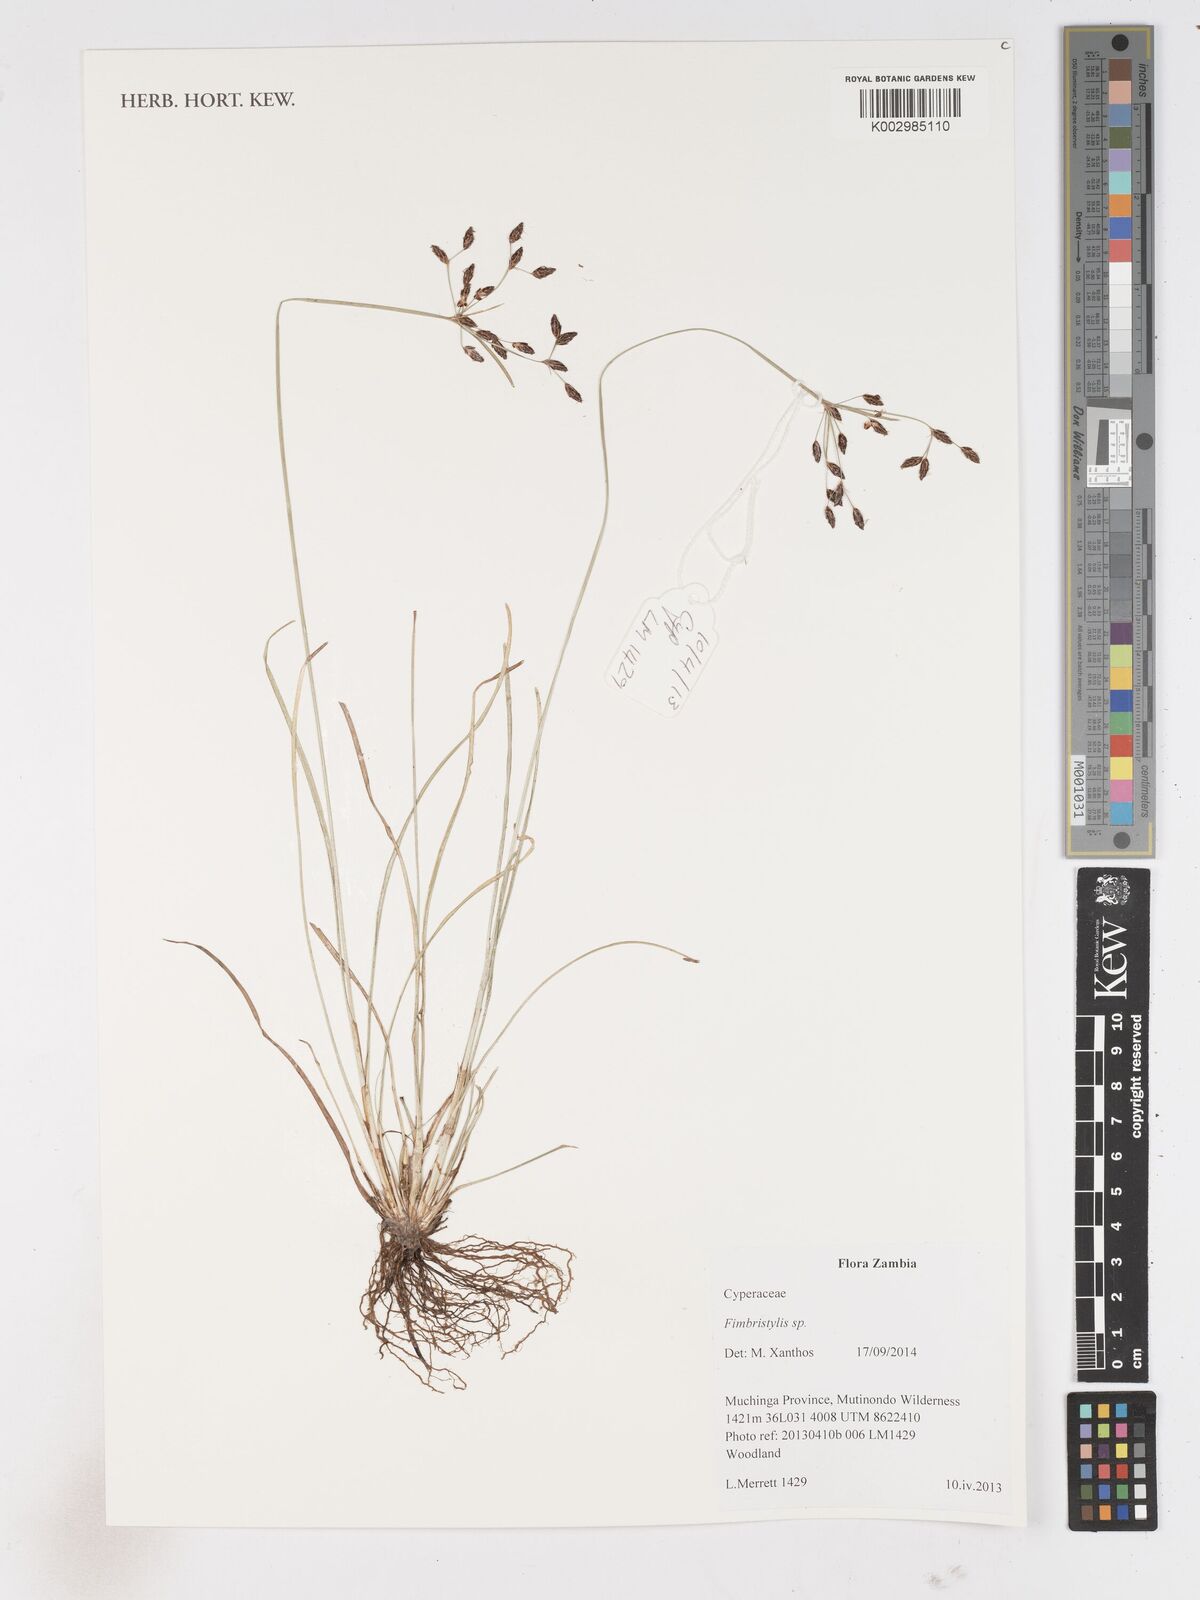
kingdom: Plantae
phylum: Tracheophyta
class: Liliopsida
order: Poales
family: Cyperaceae
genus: Fimbristylis
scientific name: Fimbristylis dichotoma
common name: Forked fimbry
